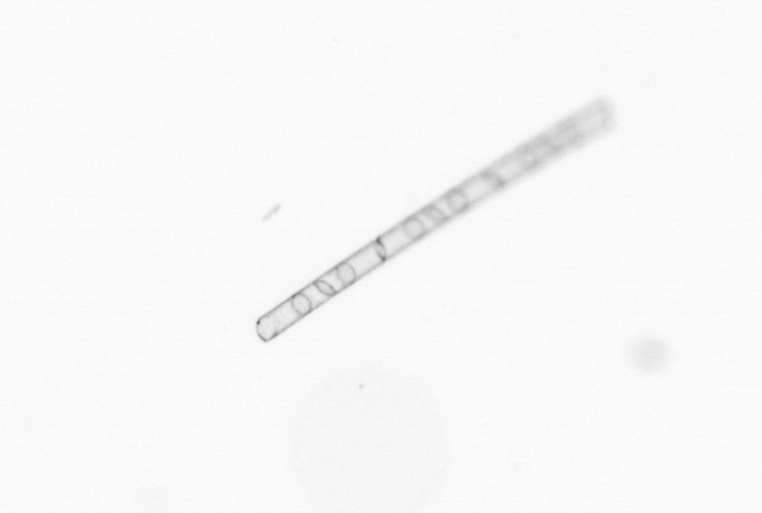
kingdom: Chromista
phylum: Ochrophyta
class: Bacillariophyceae
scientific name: Bacillariophyceae
